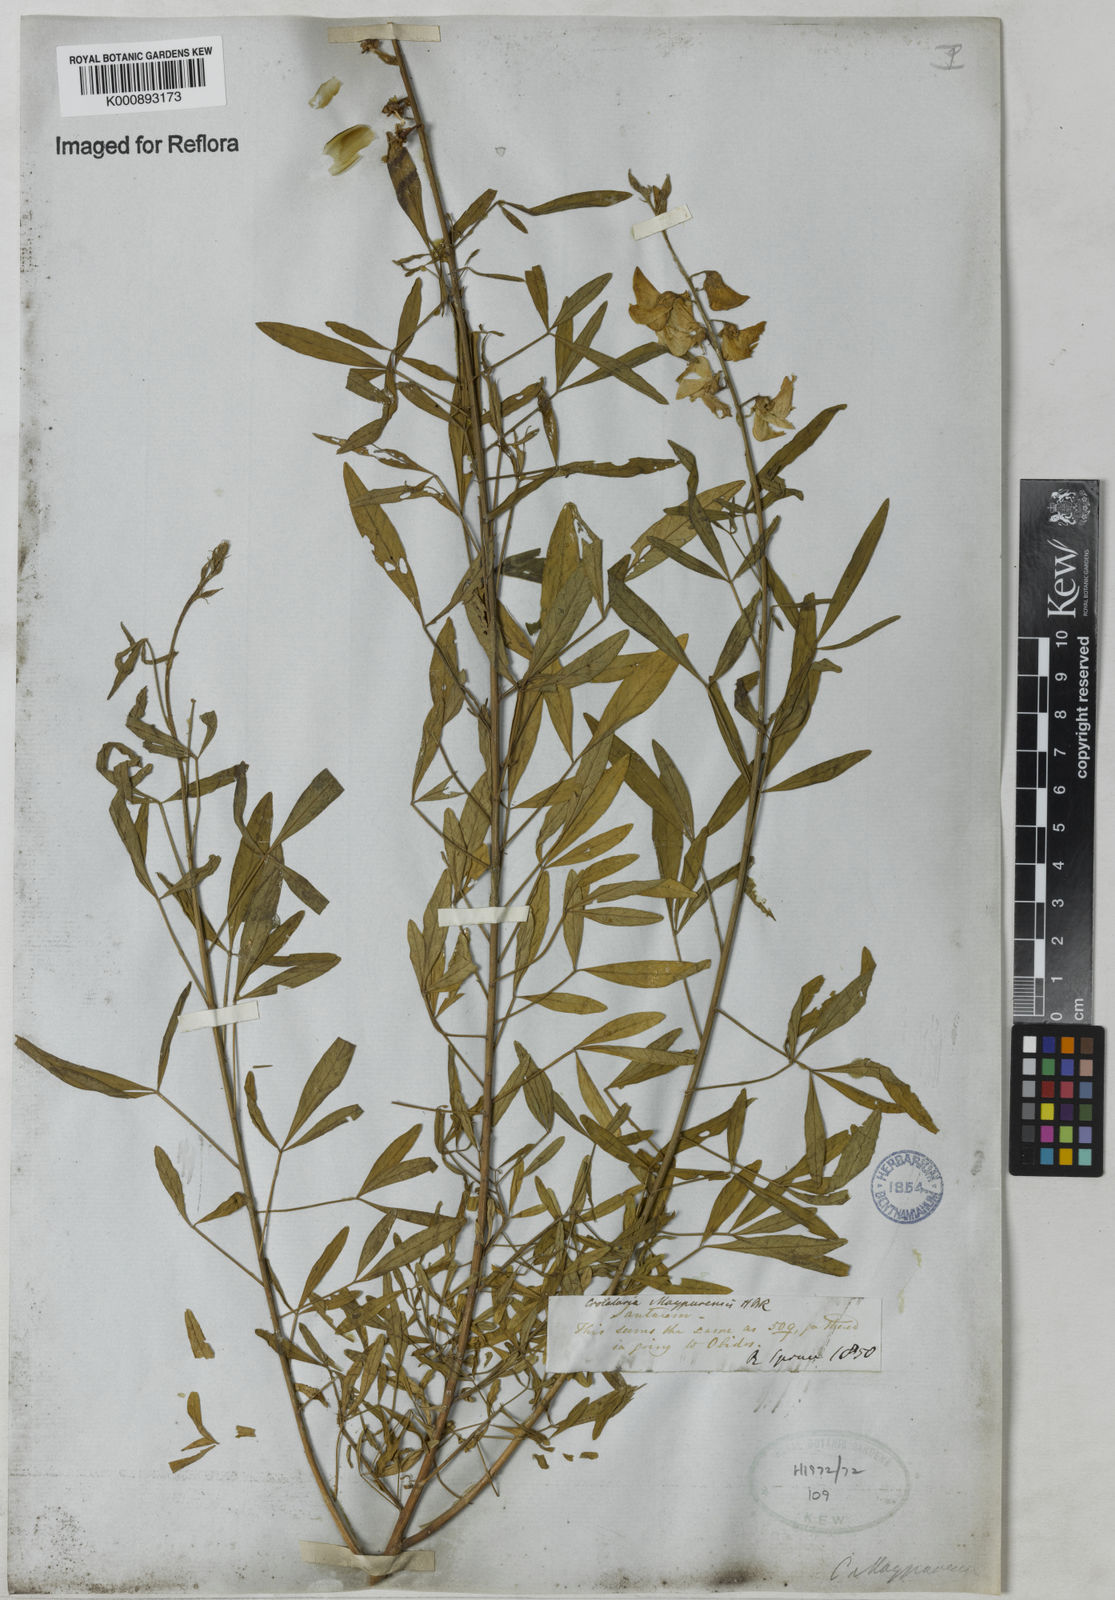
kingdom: Plantae
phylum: Tracheophyta
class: Magnoliopsida
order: Fabales
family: Fabaceae
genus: Crotalaria
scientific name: Crotalaria maypurensis
